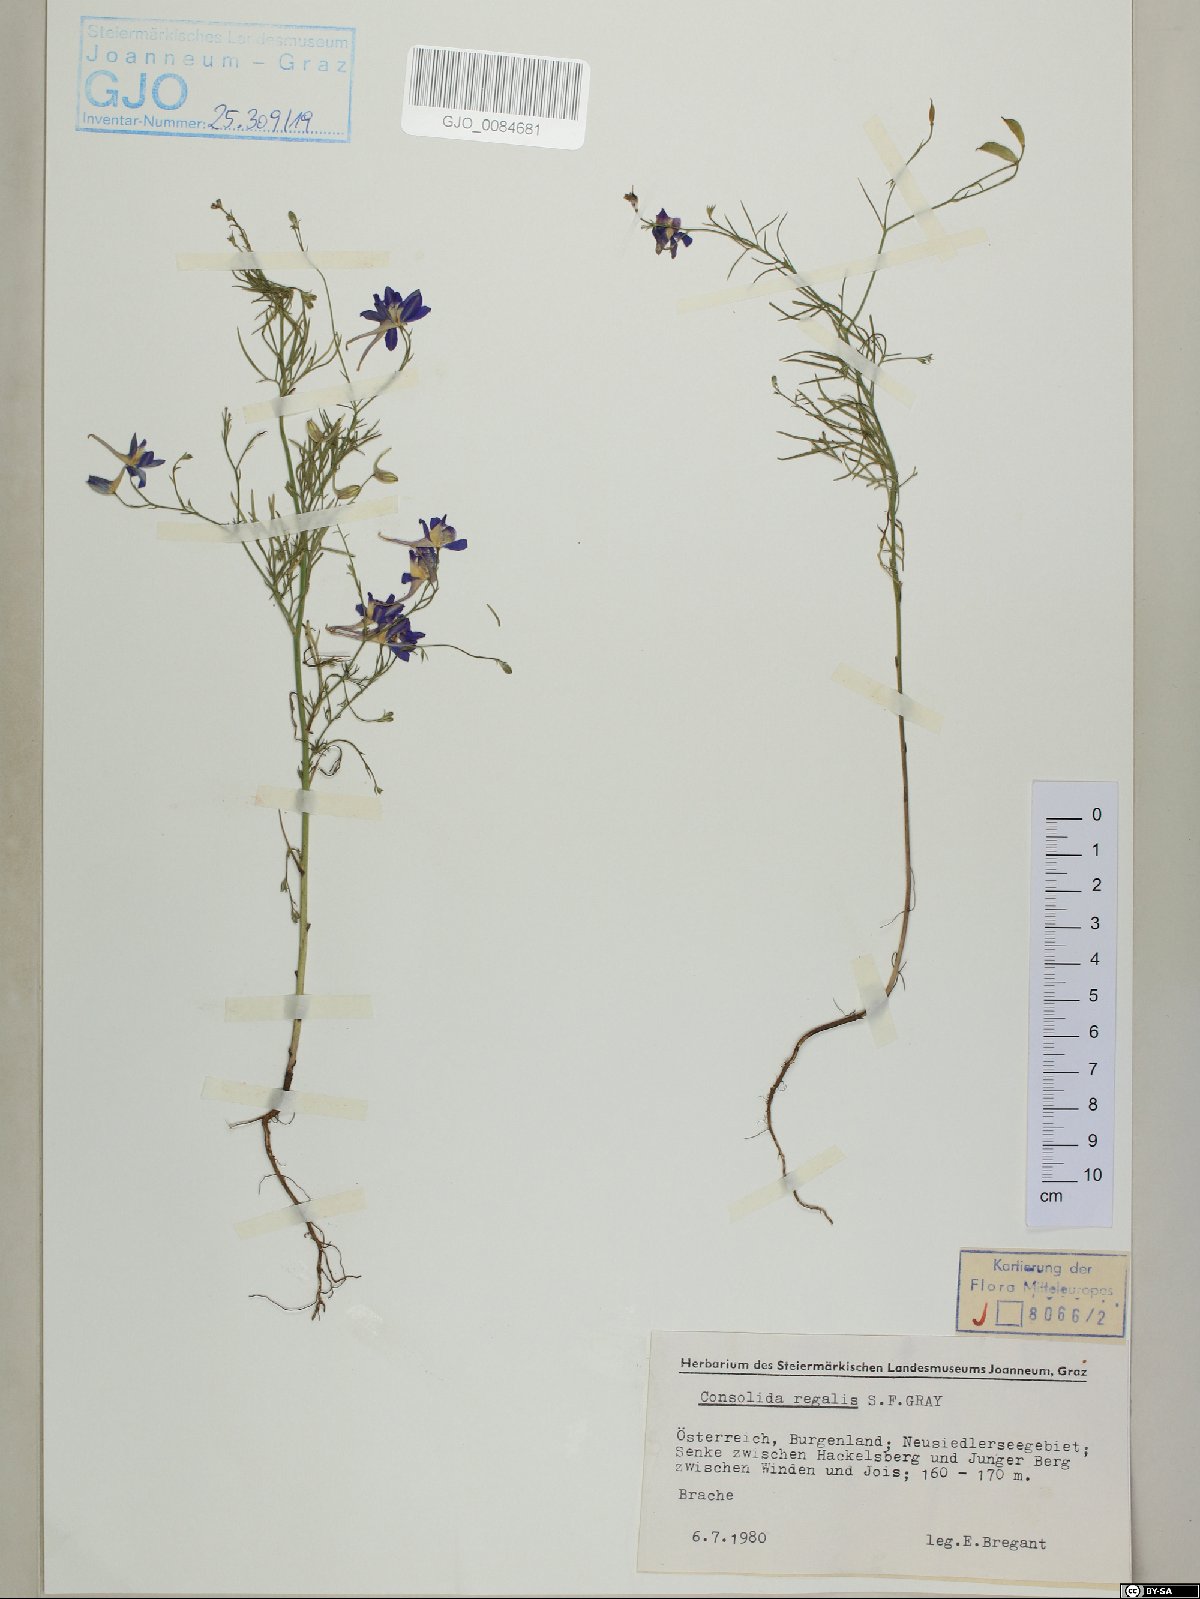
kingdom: Plantae
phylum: Tracheophyta
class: Magnoliopsida
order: Ranunculales
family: Ranunculaceae
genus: Delphinium
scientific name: Delphinium consolida
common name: Branching larkspur
